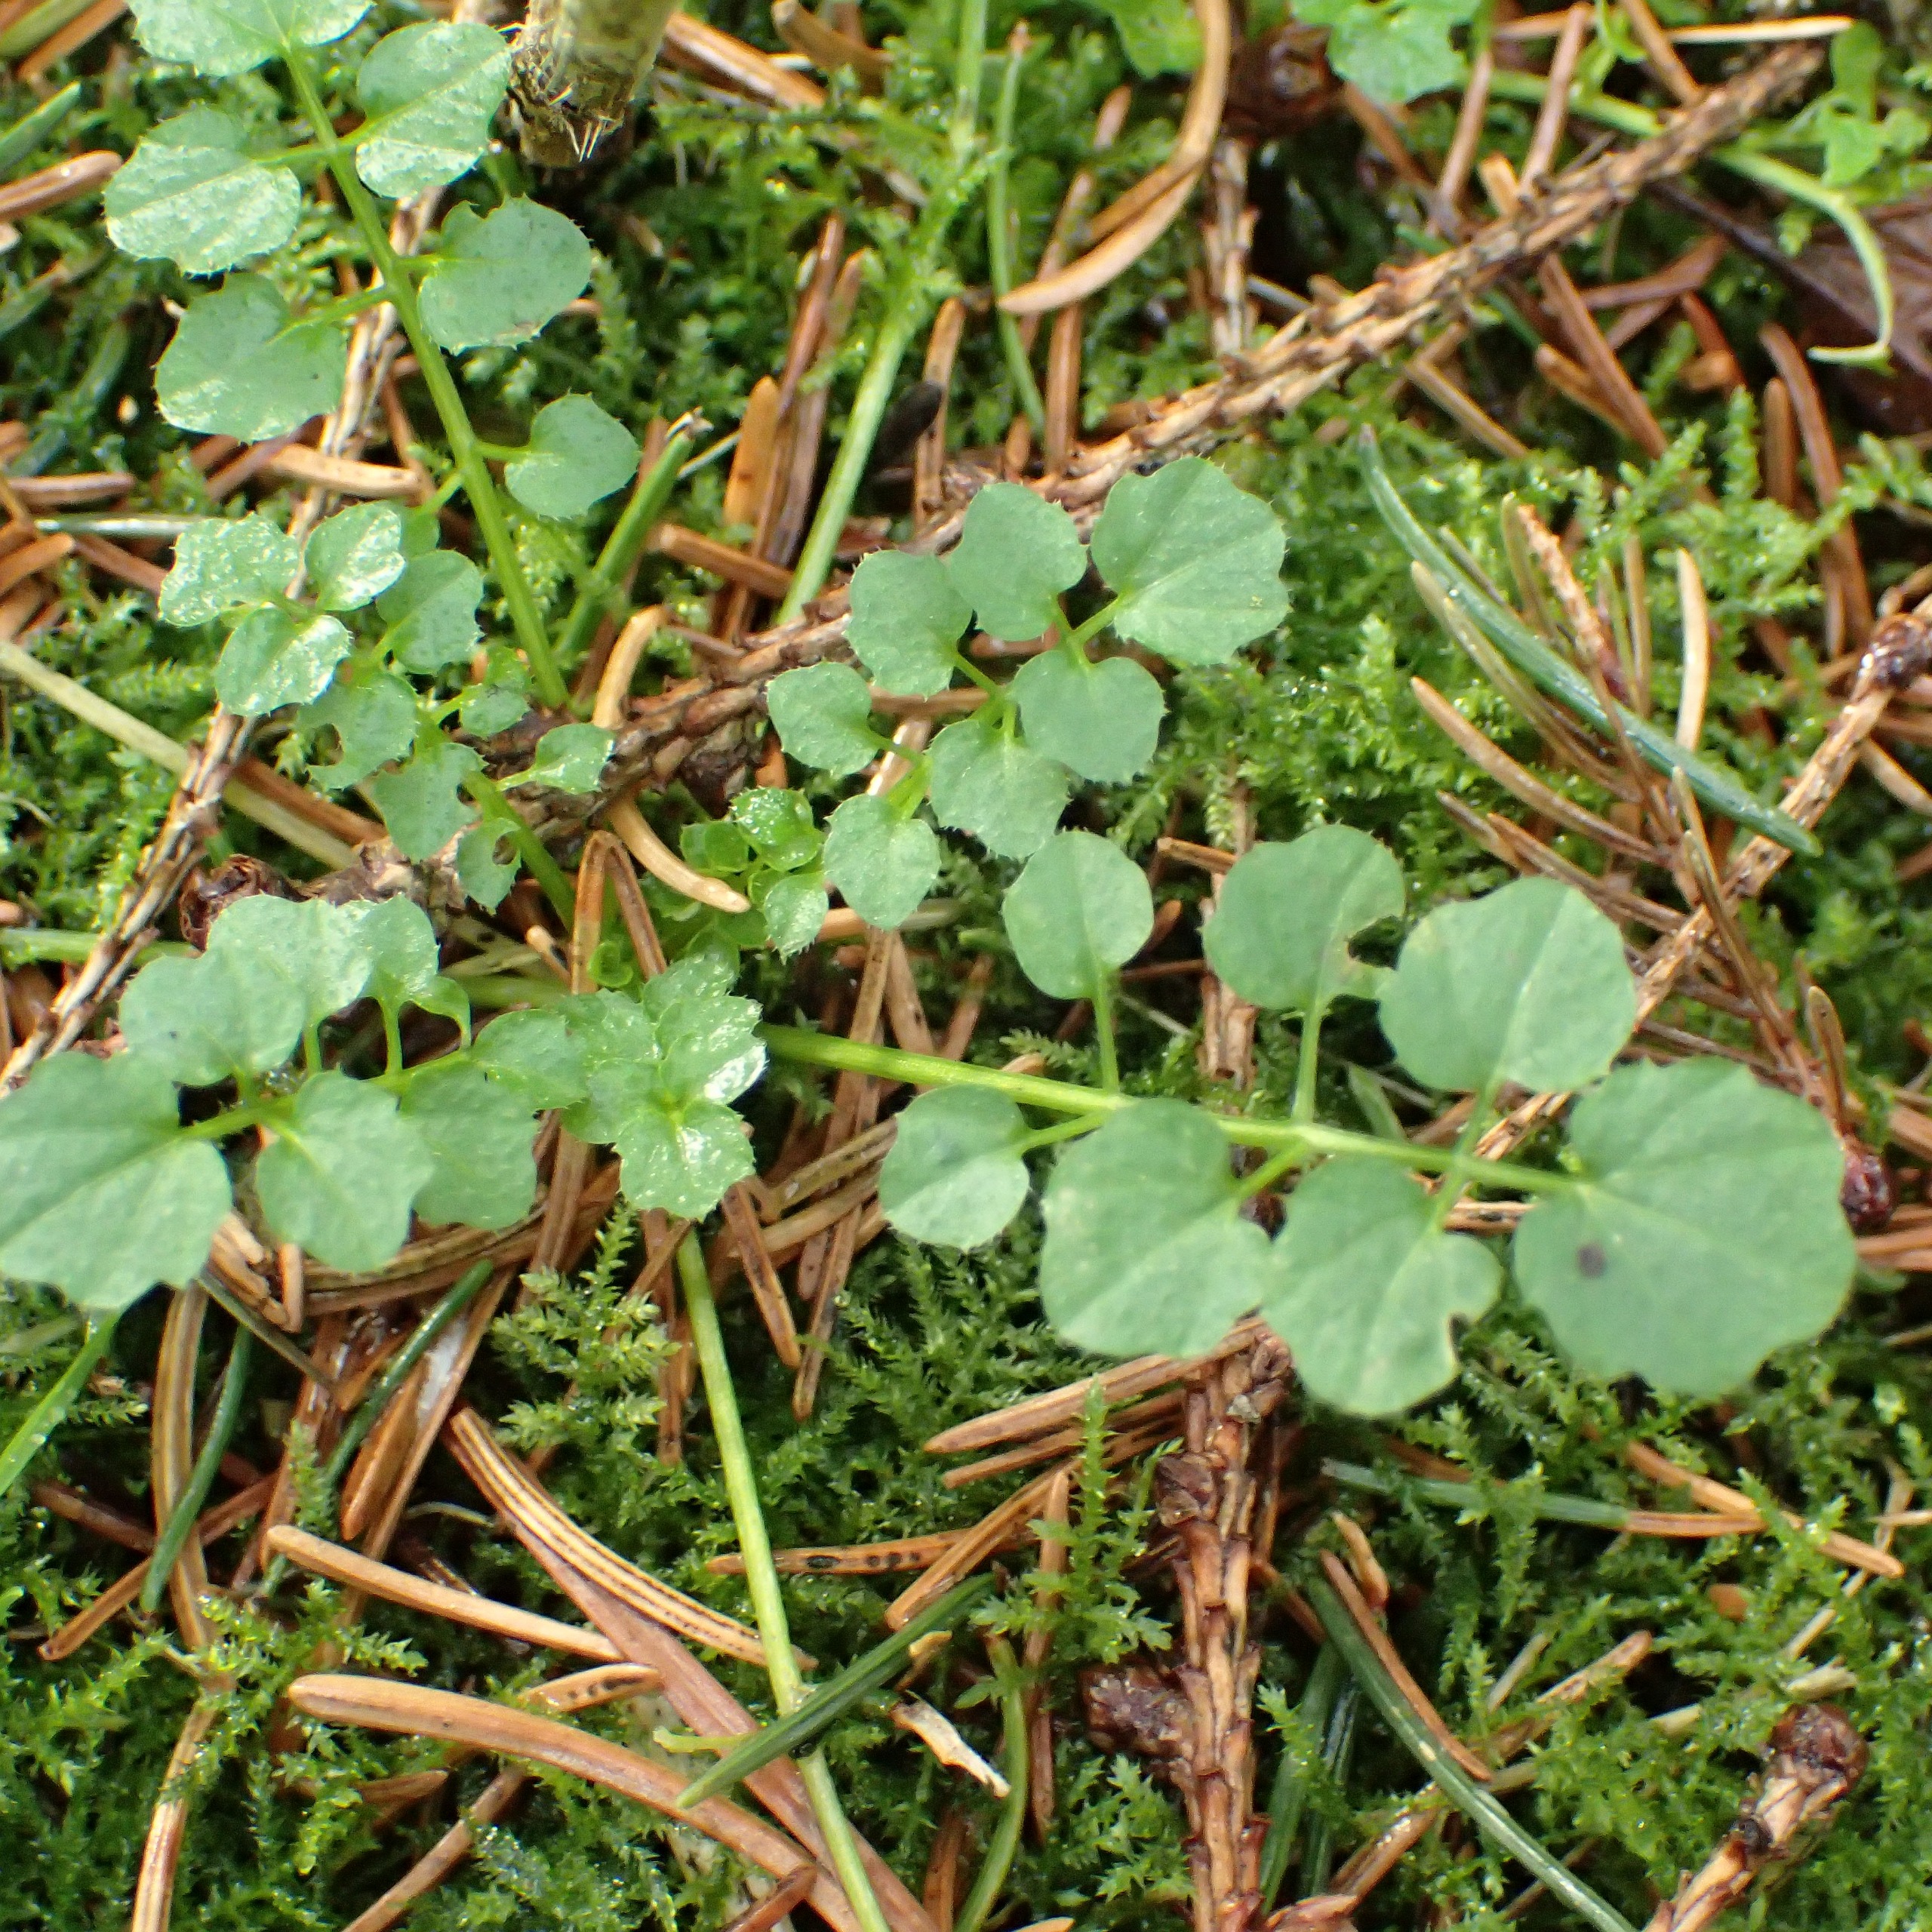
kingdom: Plantae
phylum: Tracheophyta
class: Magnoliopsida
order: Brassicales
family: Brassicaceae
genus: Cardamine
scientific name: Cardamine flexuosa
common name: Skov-springklap
